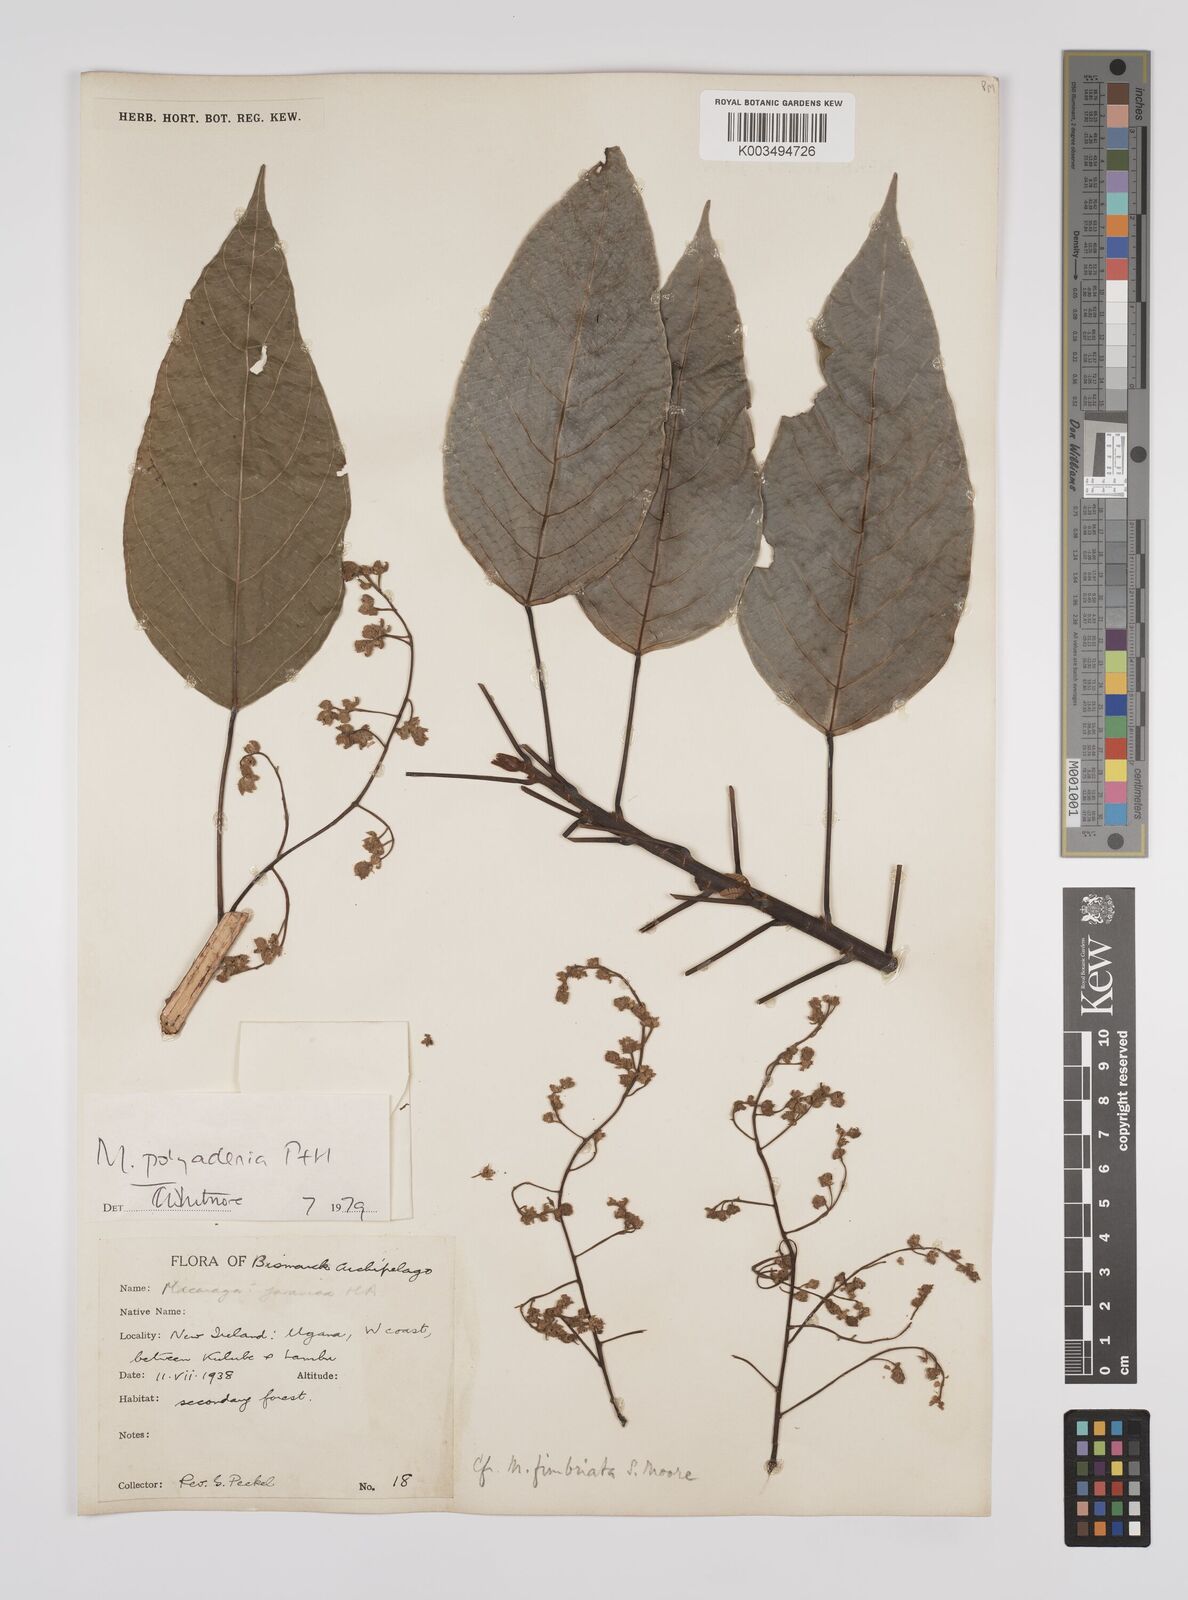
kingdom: Plantae
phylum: Tracheophyta
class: Magnoliopsida
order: Malpighiales
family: Euphorbiaceae
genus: Macaranga
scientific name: Macaranga polyadenia
